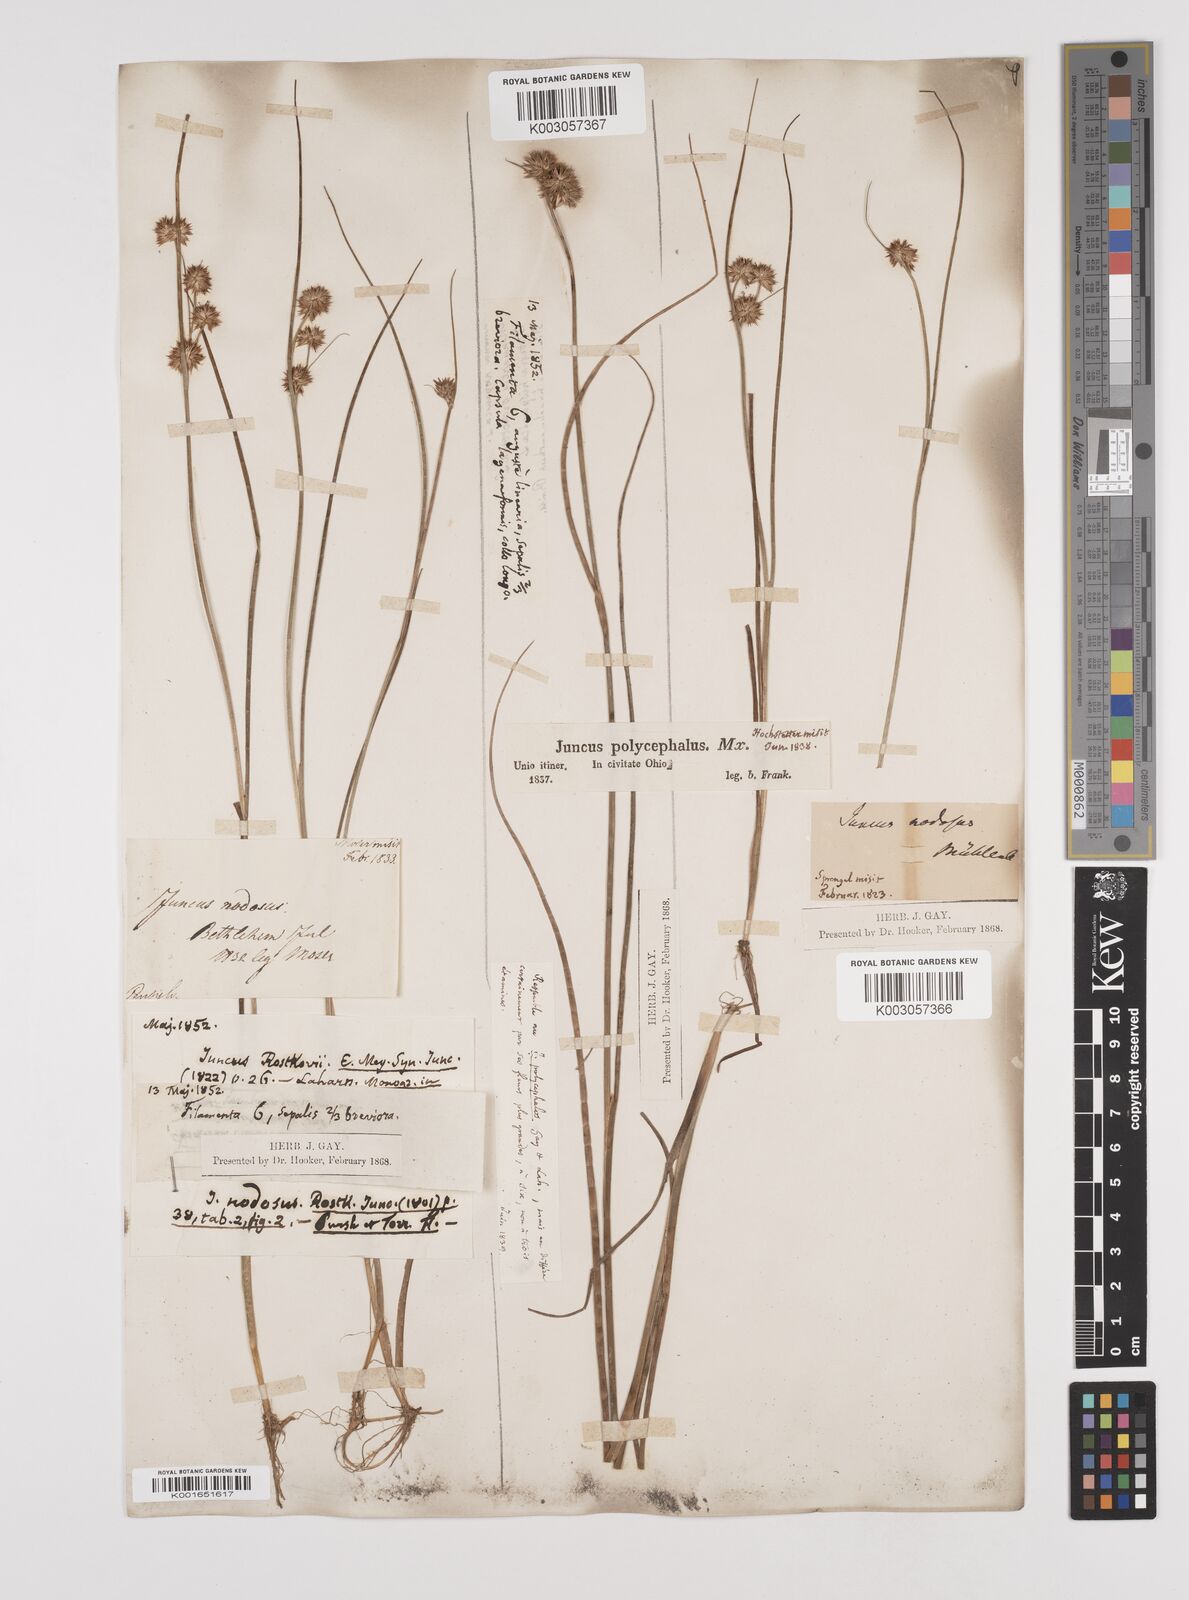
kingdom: Plantae
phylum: Tracheophyta
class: Liliopsida
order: Poales
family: Juncaceae
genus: Juncus
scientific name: Juncus nodosus
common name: Knotted rush
